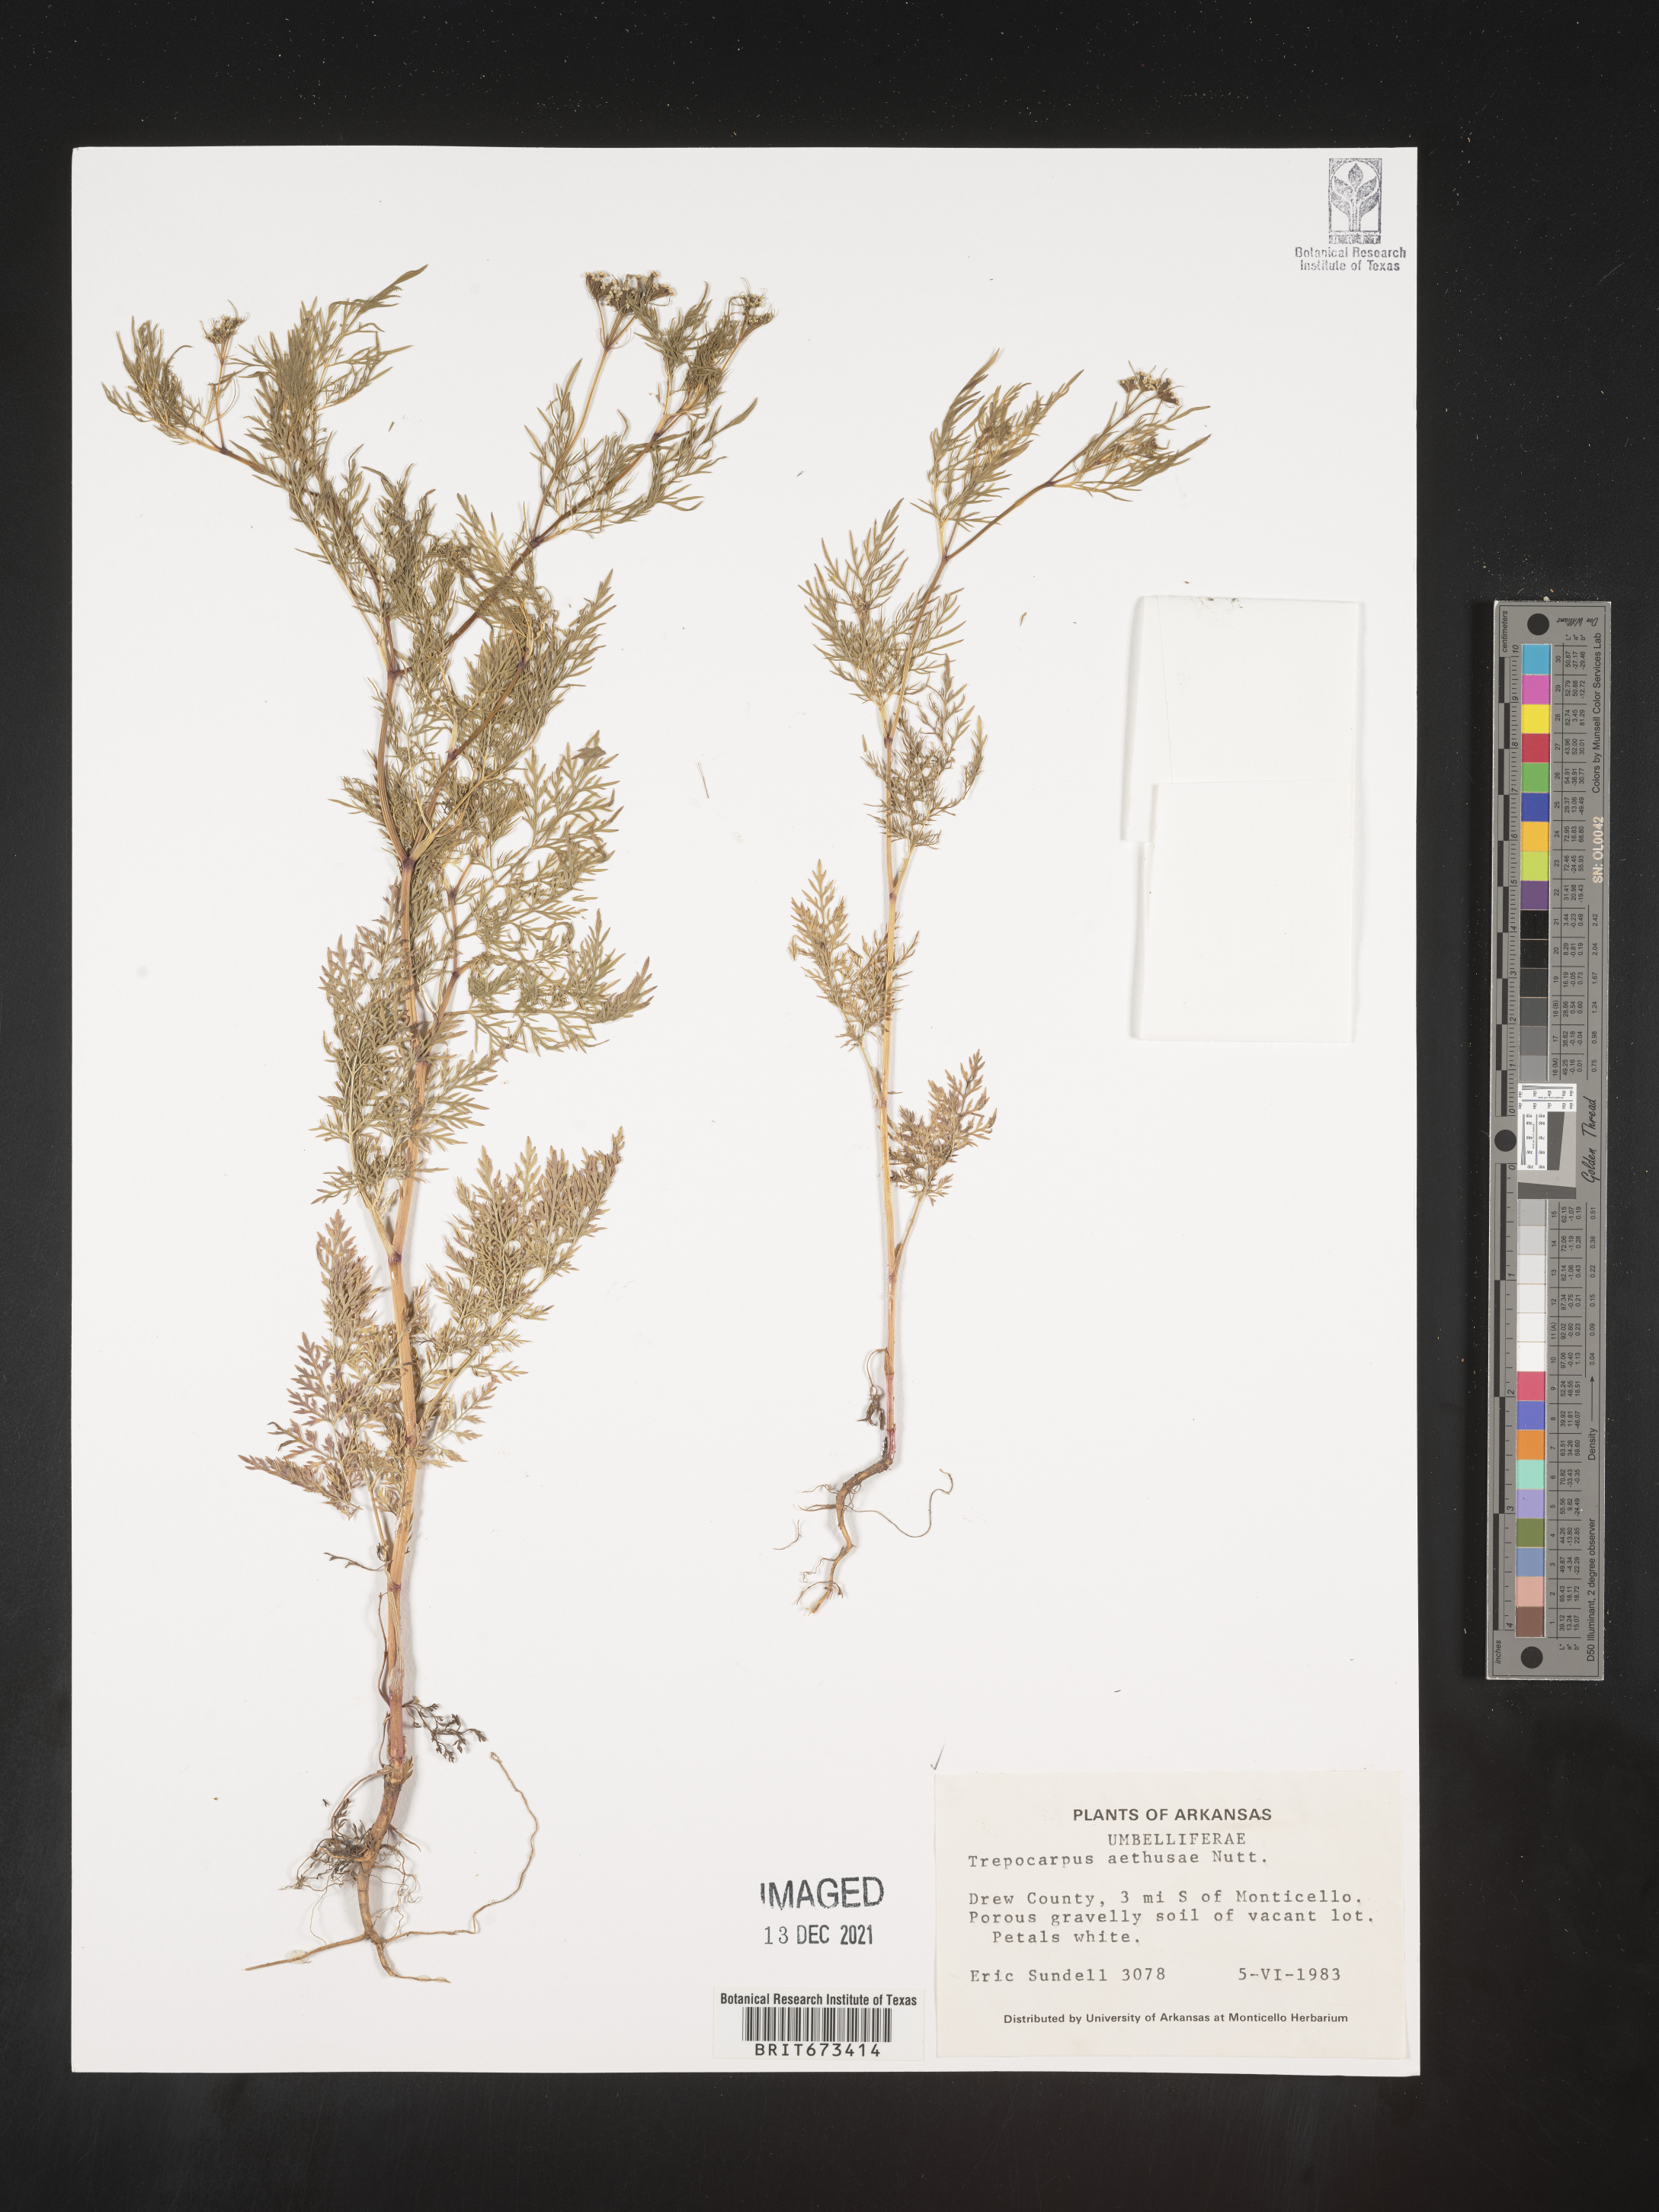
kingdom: Plantae
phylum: Tracheophyta
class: Magnoliopsida
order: Apiales
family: Apiaceae
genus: Trepocarpus
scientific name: Trepocarpus aethusae
